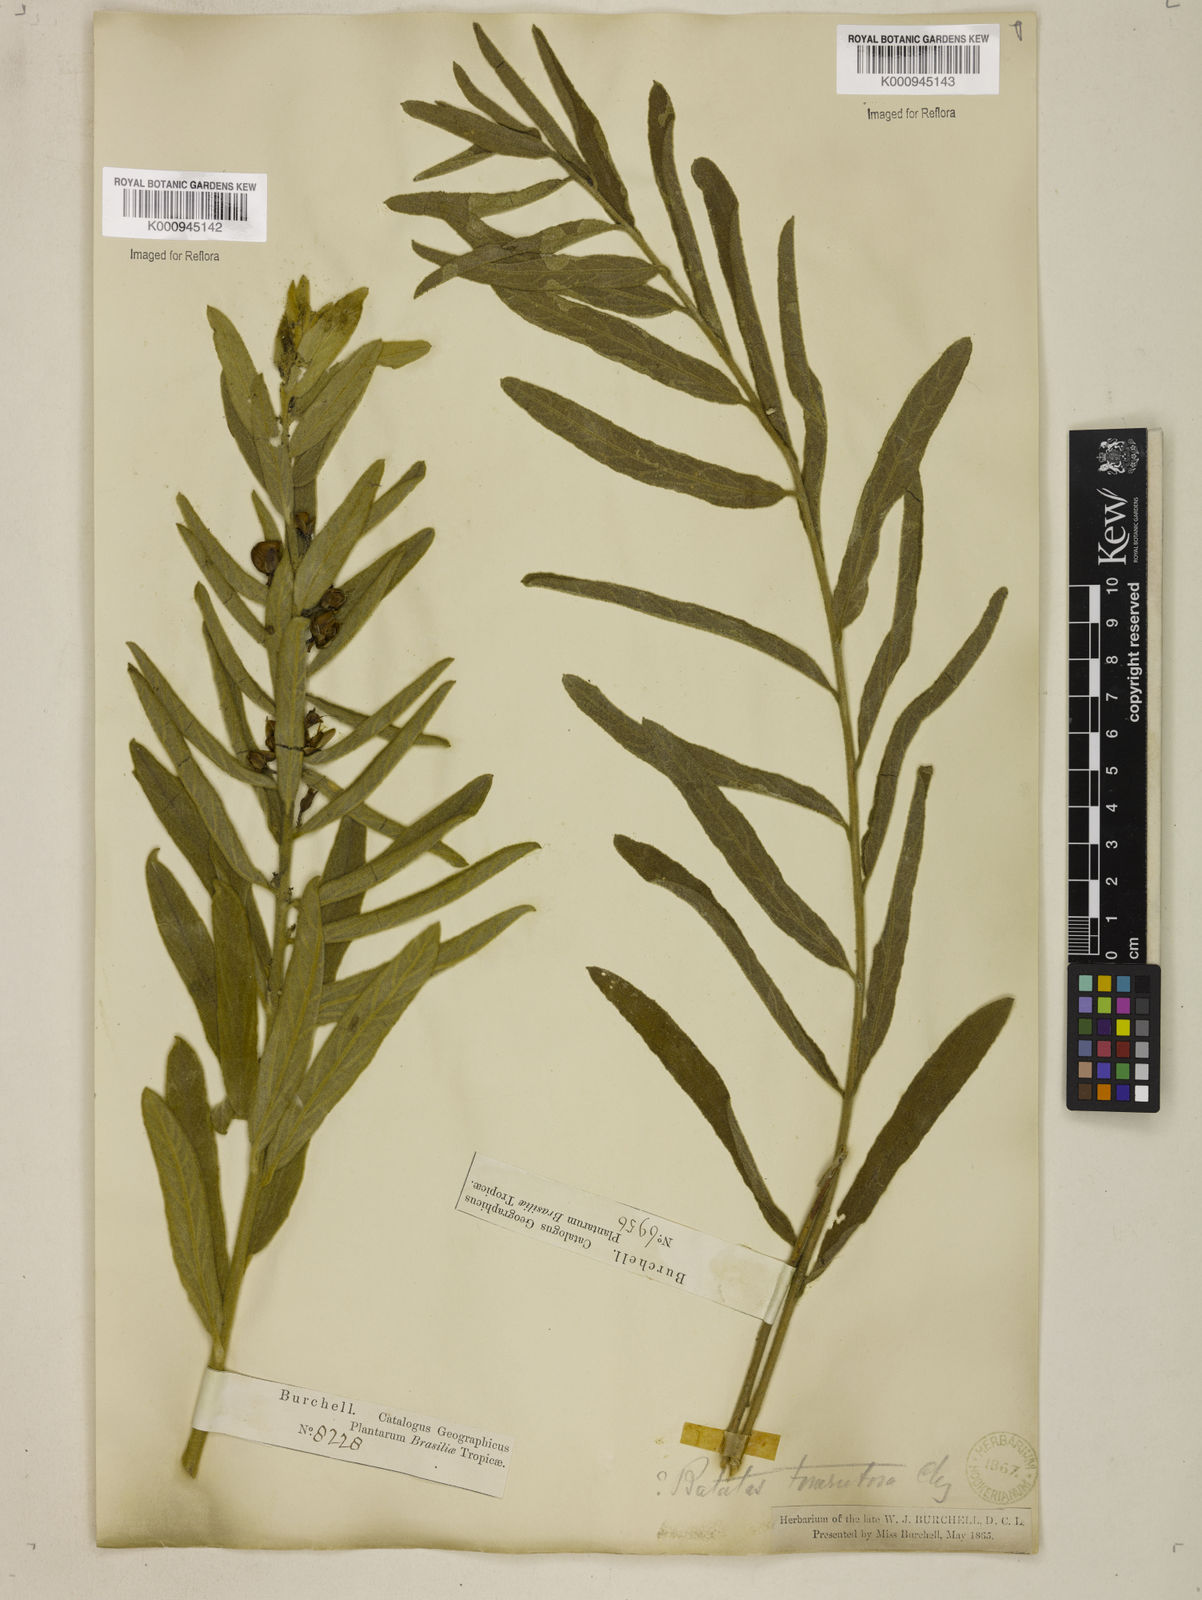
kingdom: Plantae
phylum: Tracheophyta
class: Magnoliopsida
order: Solanales
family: Convolvulaceae
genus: Distimake
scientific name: Distimake tomentosus
